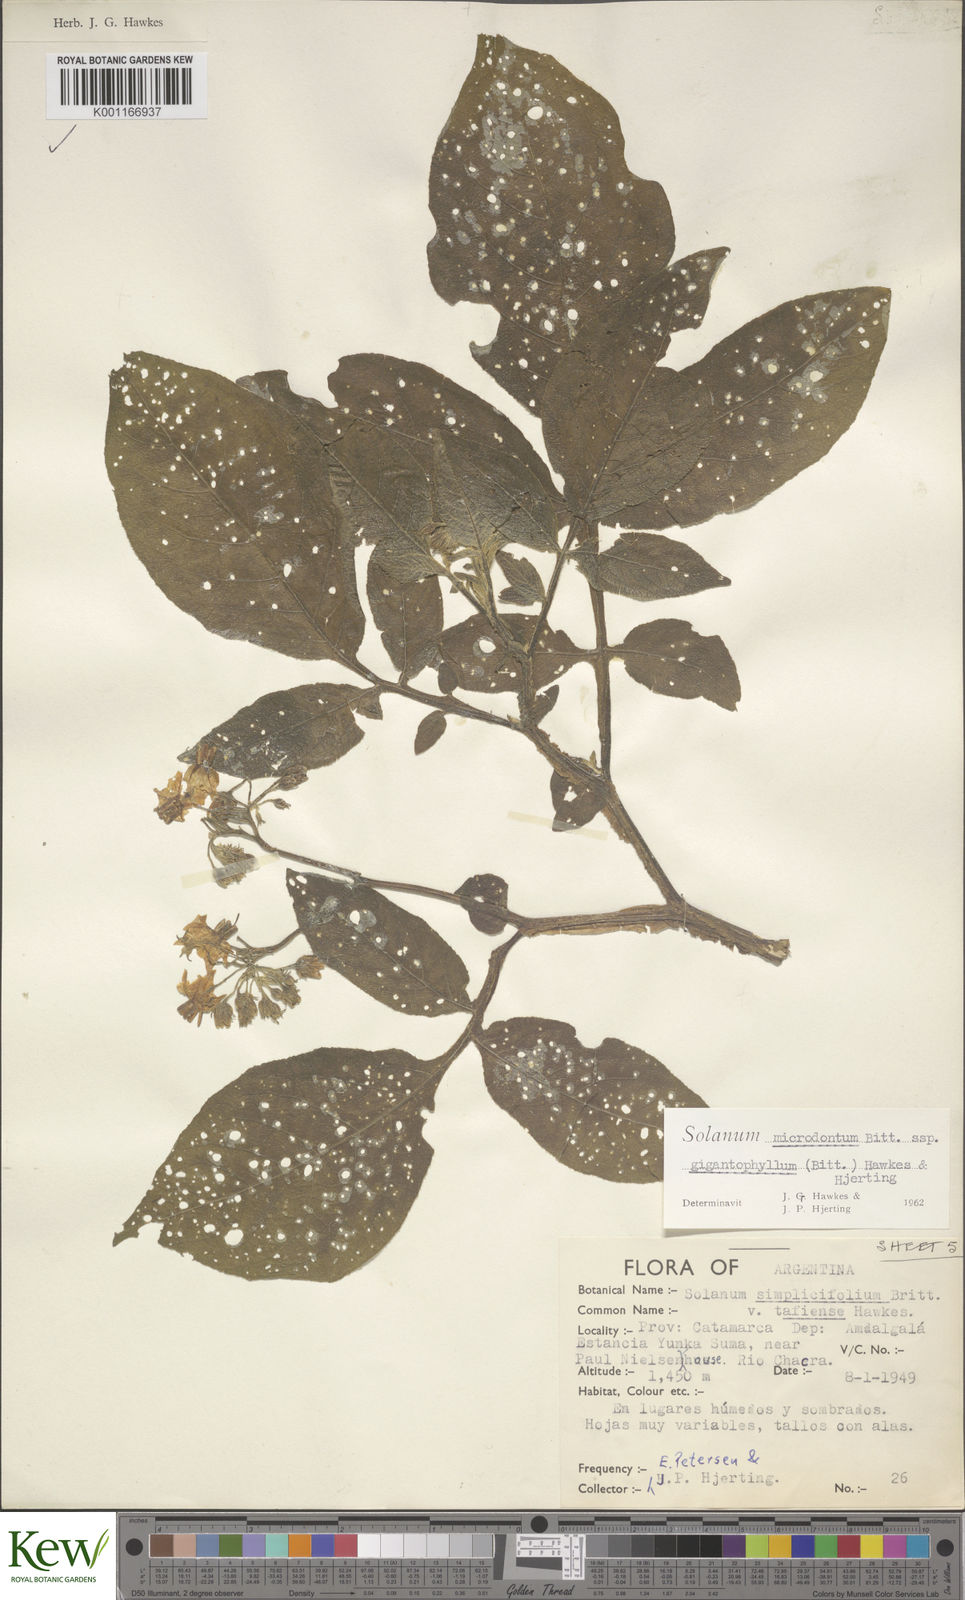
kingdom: Plantae
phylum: Tracheophyta
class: Magnoliopsida
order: Solanales
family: Solanaceae
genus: Solanum
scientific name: Solanum microdontum
